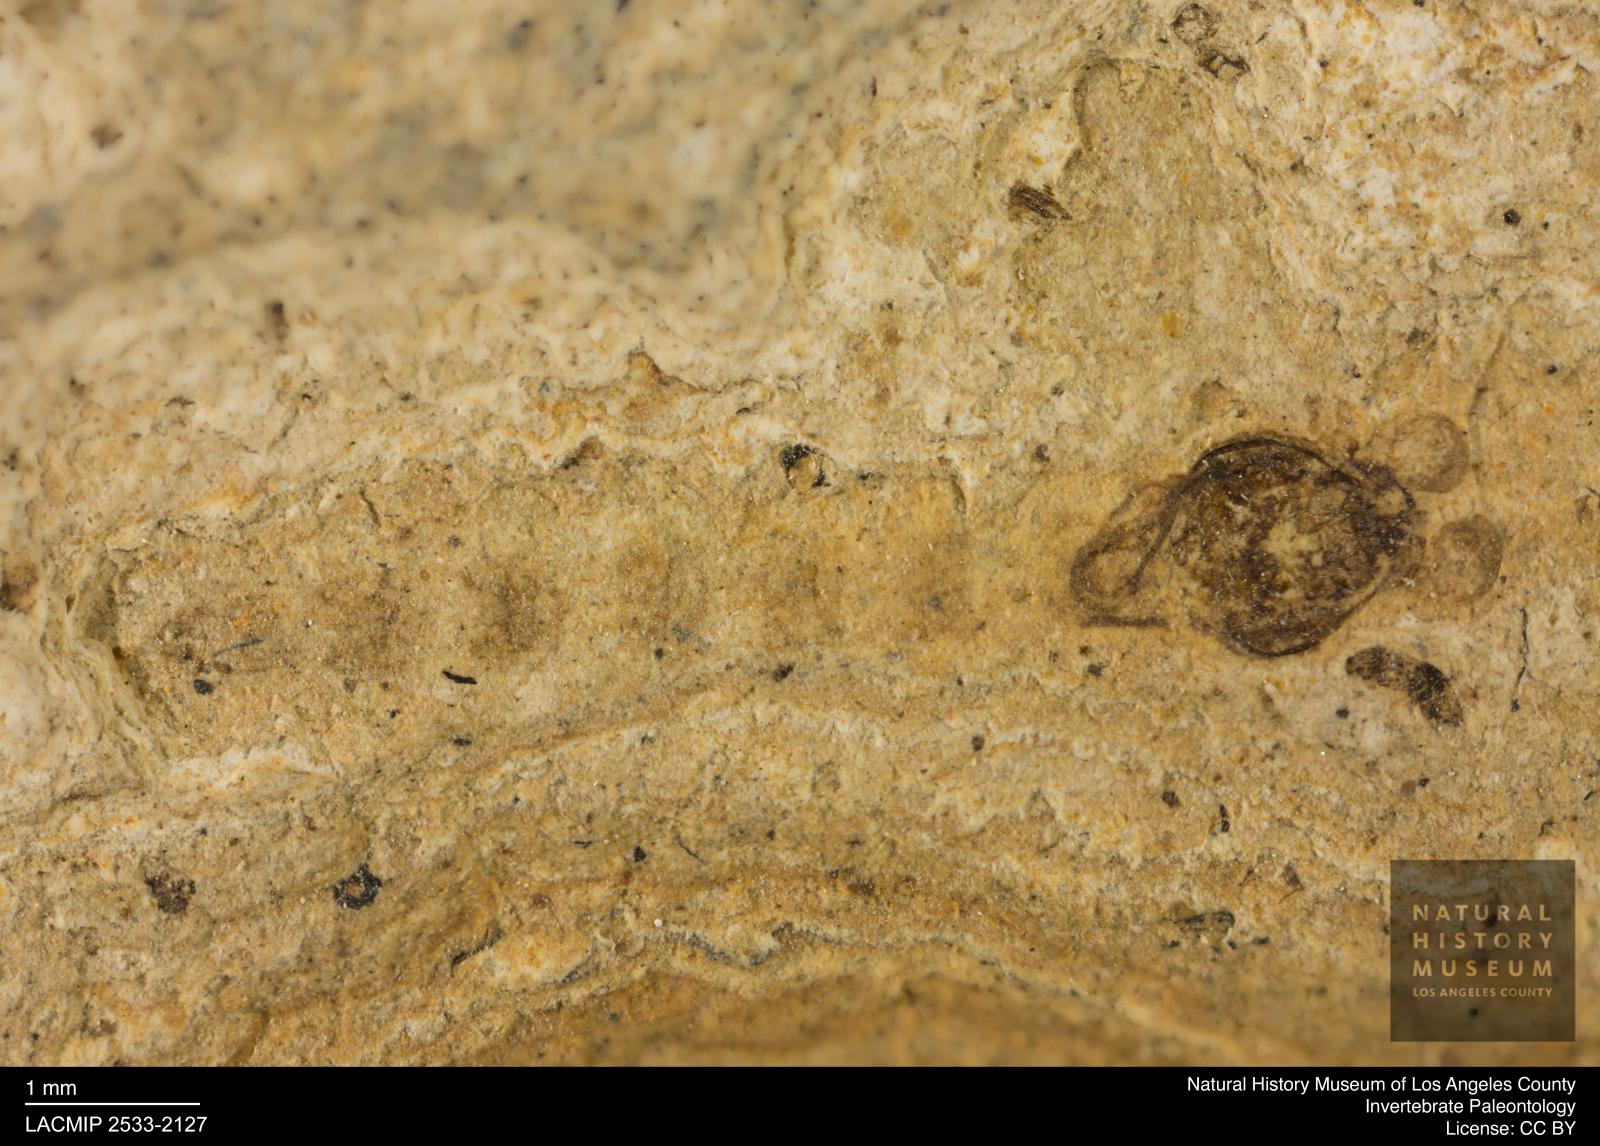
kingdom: Animalia
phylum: Arthropoda
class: Insecta
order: Diptera
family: Chironomidae
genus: Pelopiina
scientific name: Pelopiina
